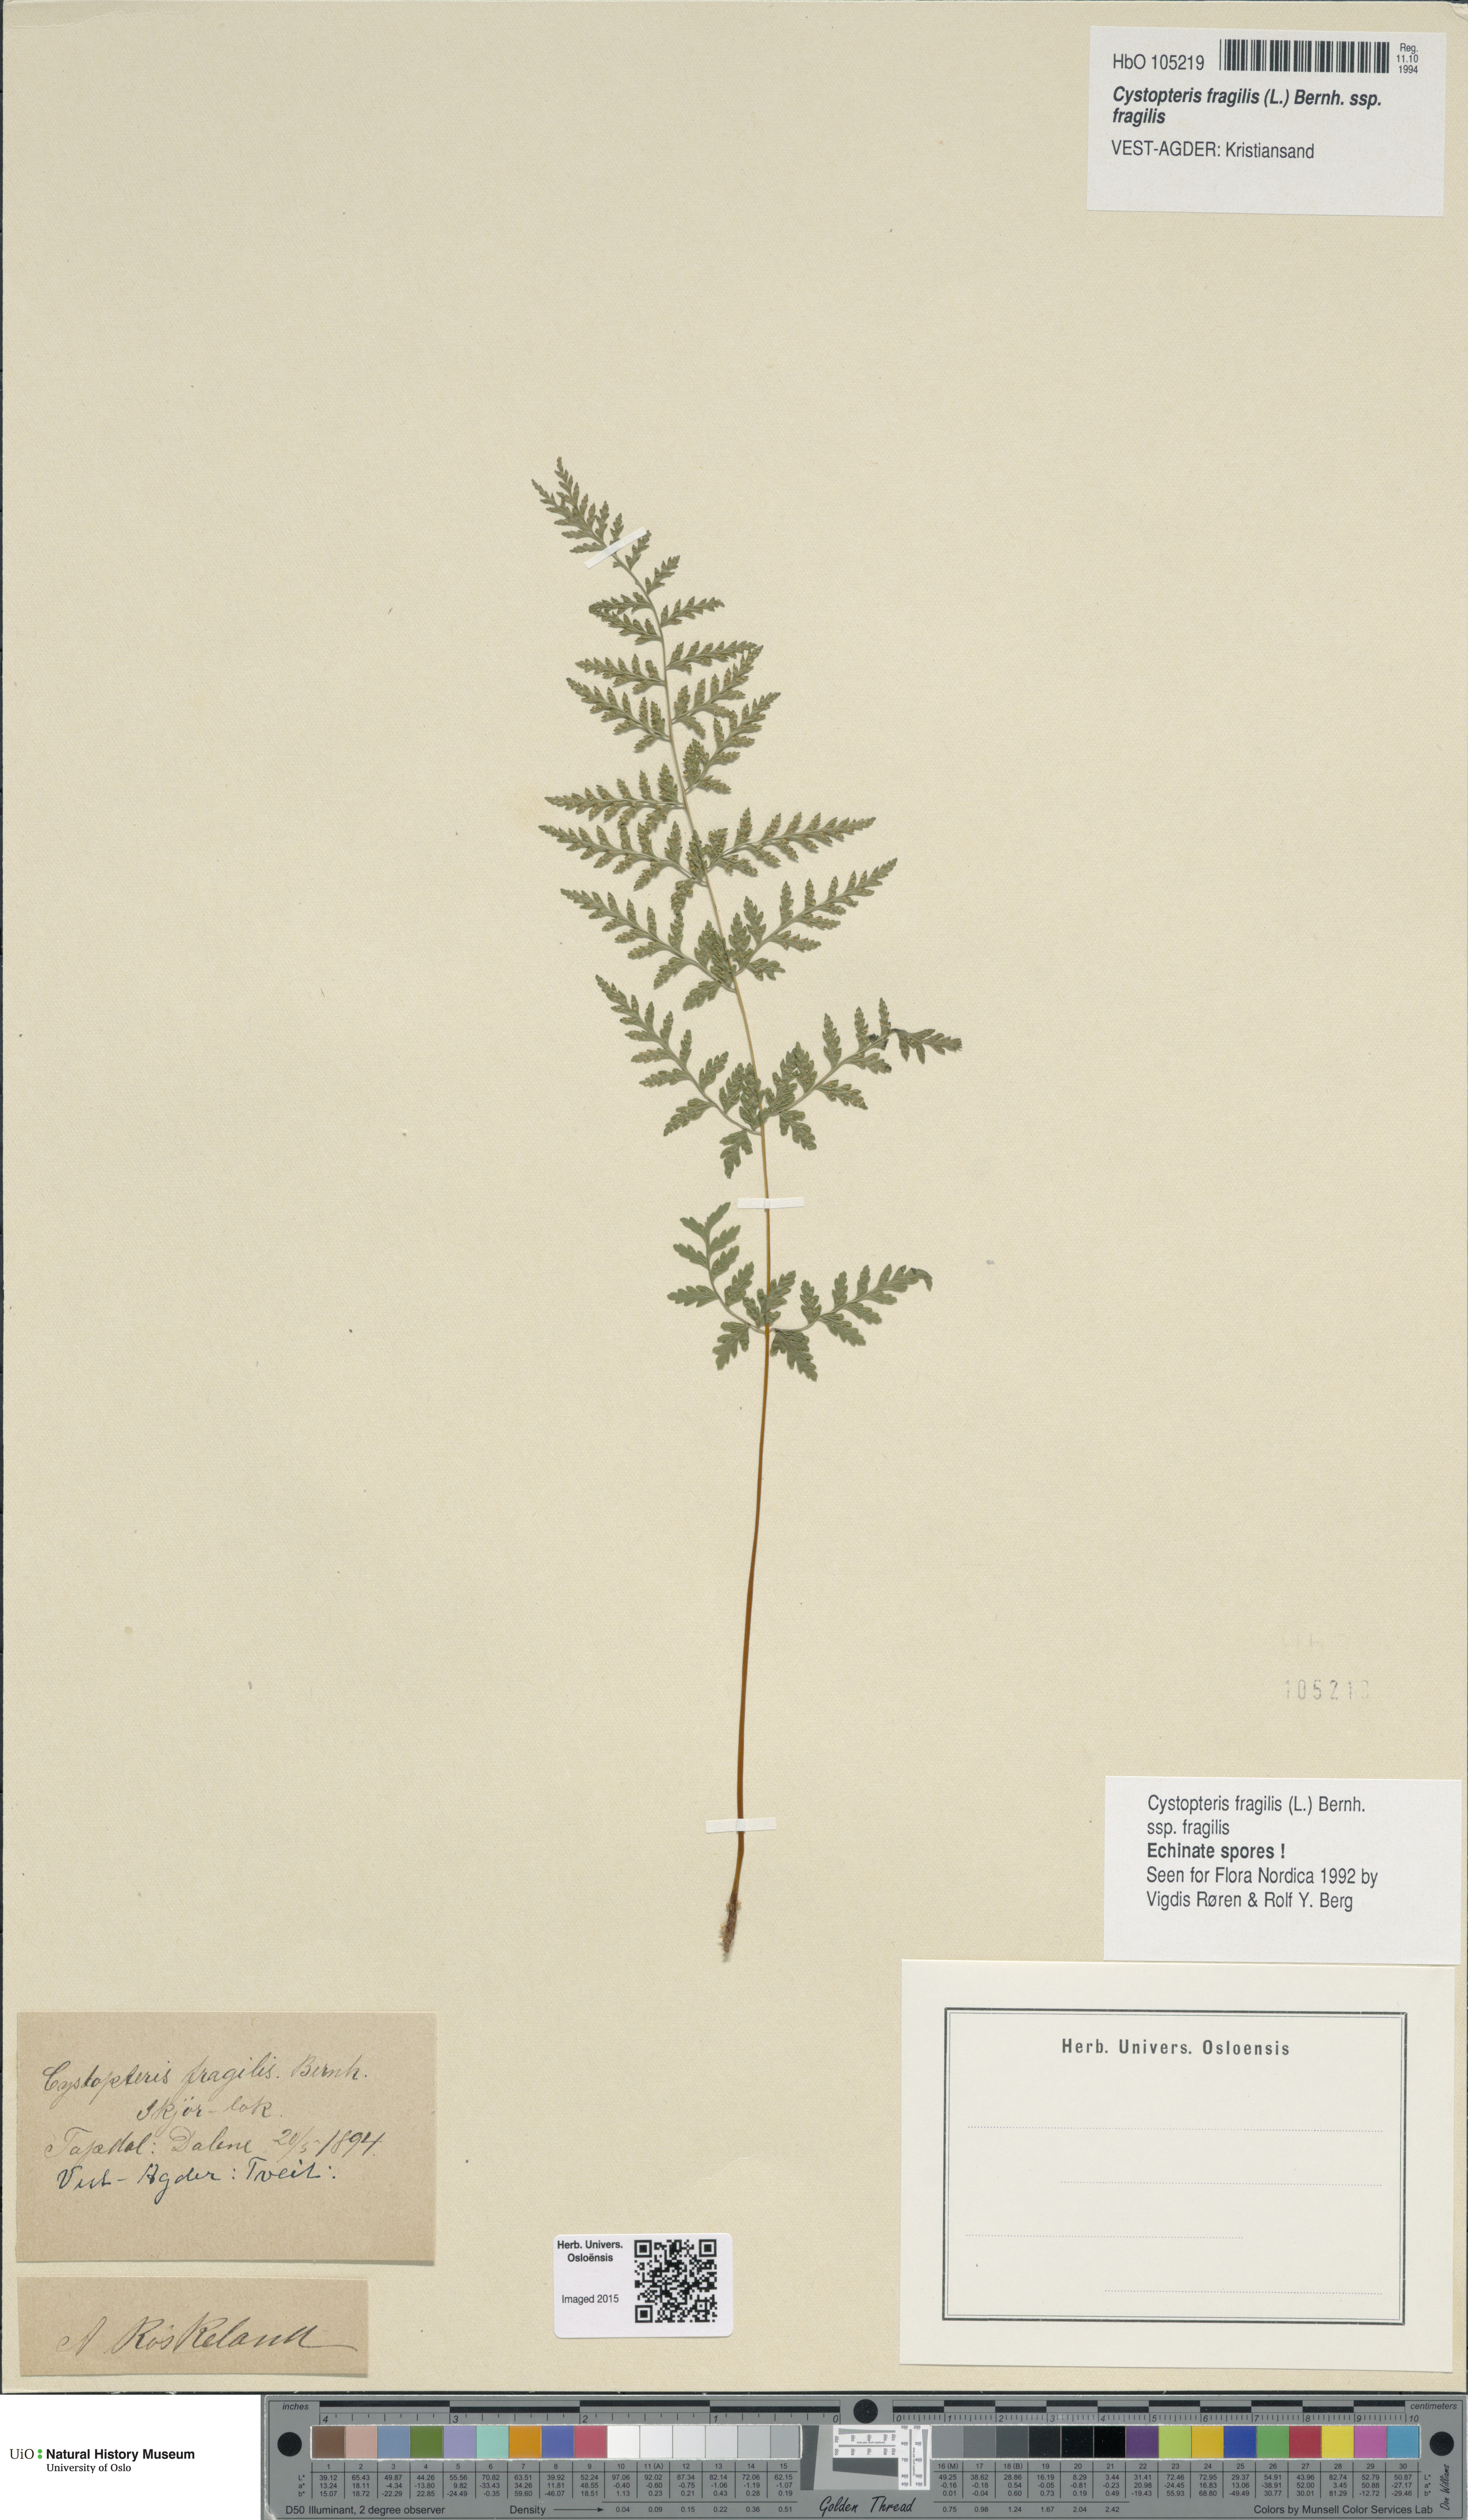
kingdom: Plantae
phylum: Tracheophyta
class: Polypodiopsida
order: Polypodiales
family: Cystopteridaceae
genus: Cystopteris
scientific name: Cystopteris fragilis
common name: Brittle bladder fern
